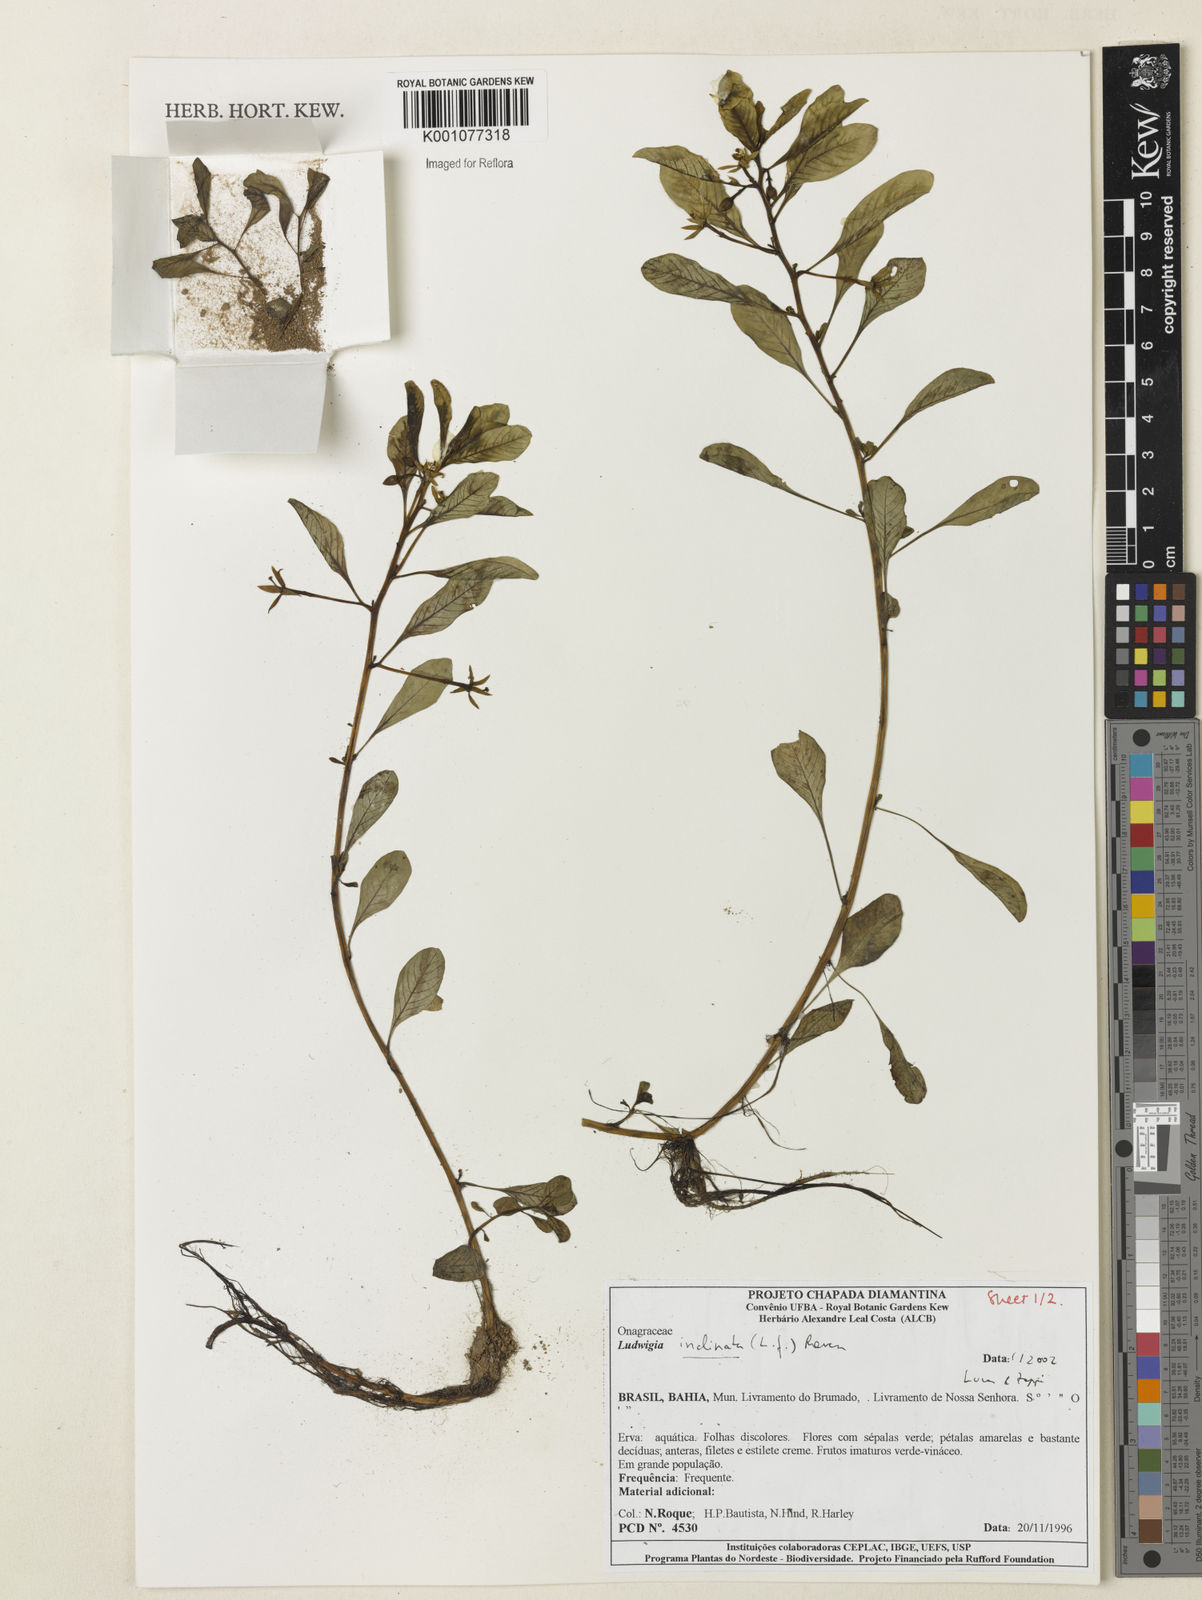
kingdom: Plantae
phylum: Tracheophyta
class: Magnoliopsida
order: Myrtales
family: Onagraceae
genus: Ludwigia
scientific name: Ludwigia
